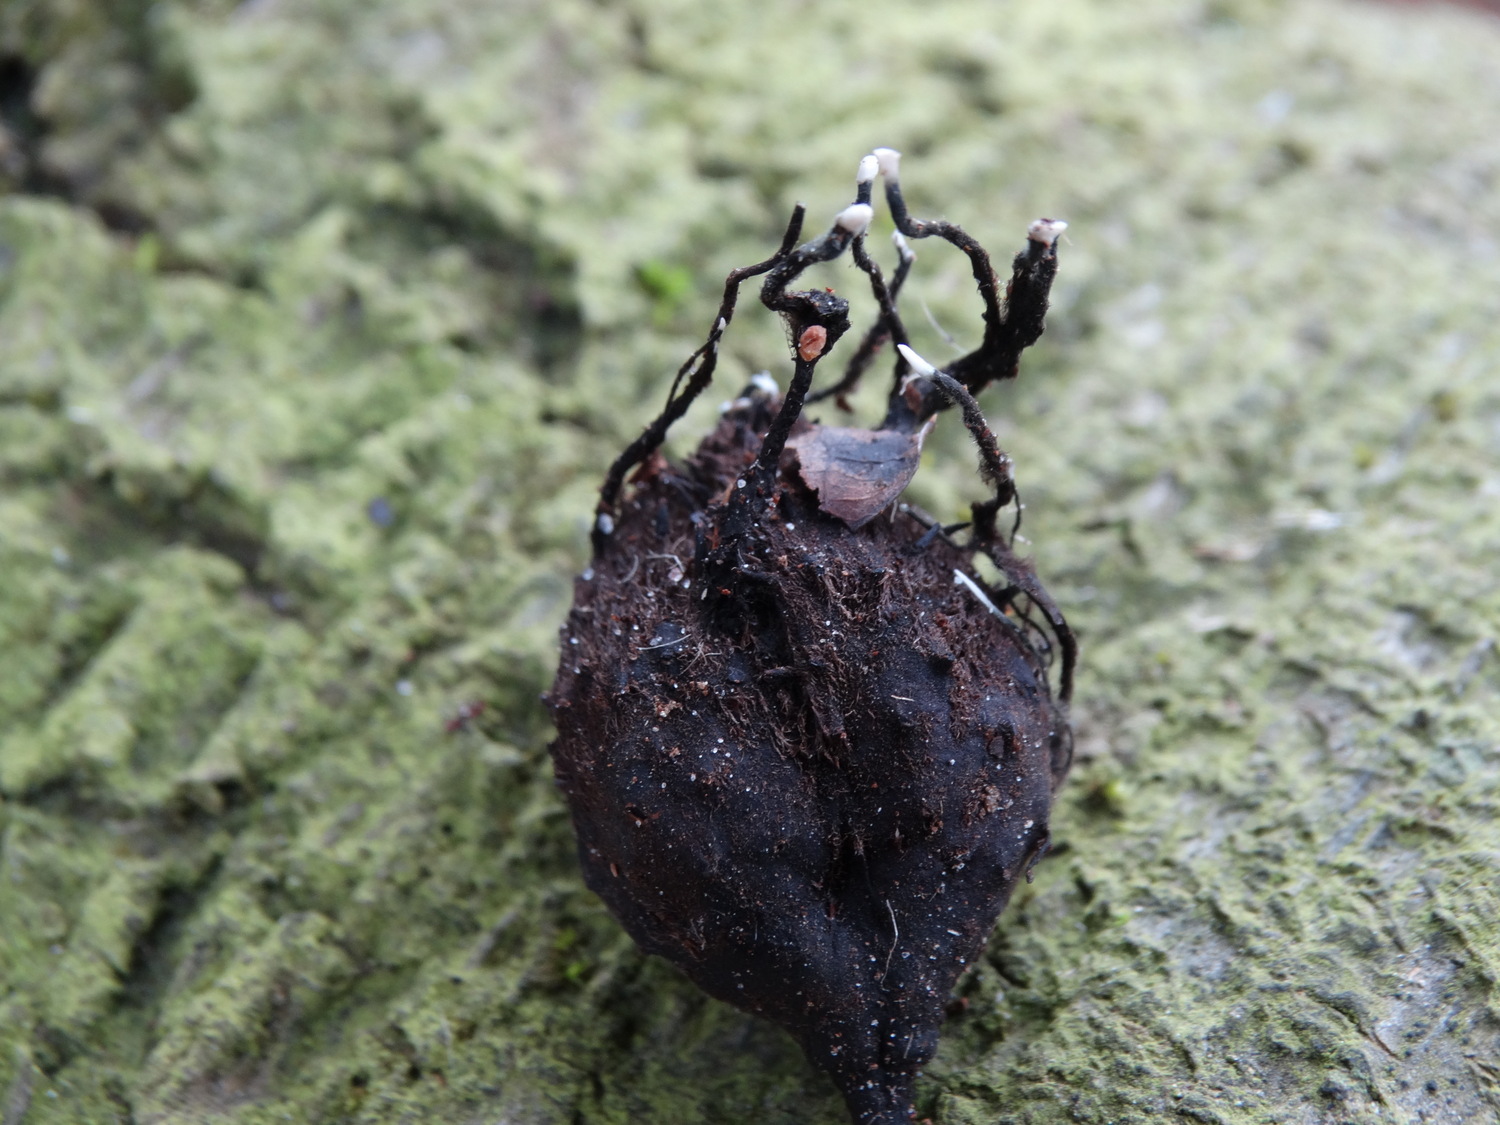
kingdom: Fungi
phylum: Ascomycota
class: Sordariomycetes
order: Xylariales
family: Xylariaceae
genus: Xylaria
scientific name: Xylaria carpophila
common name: bogskål-stødsvamp
